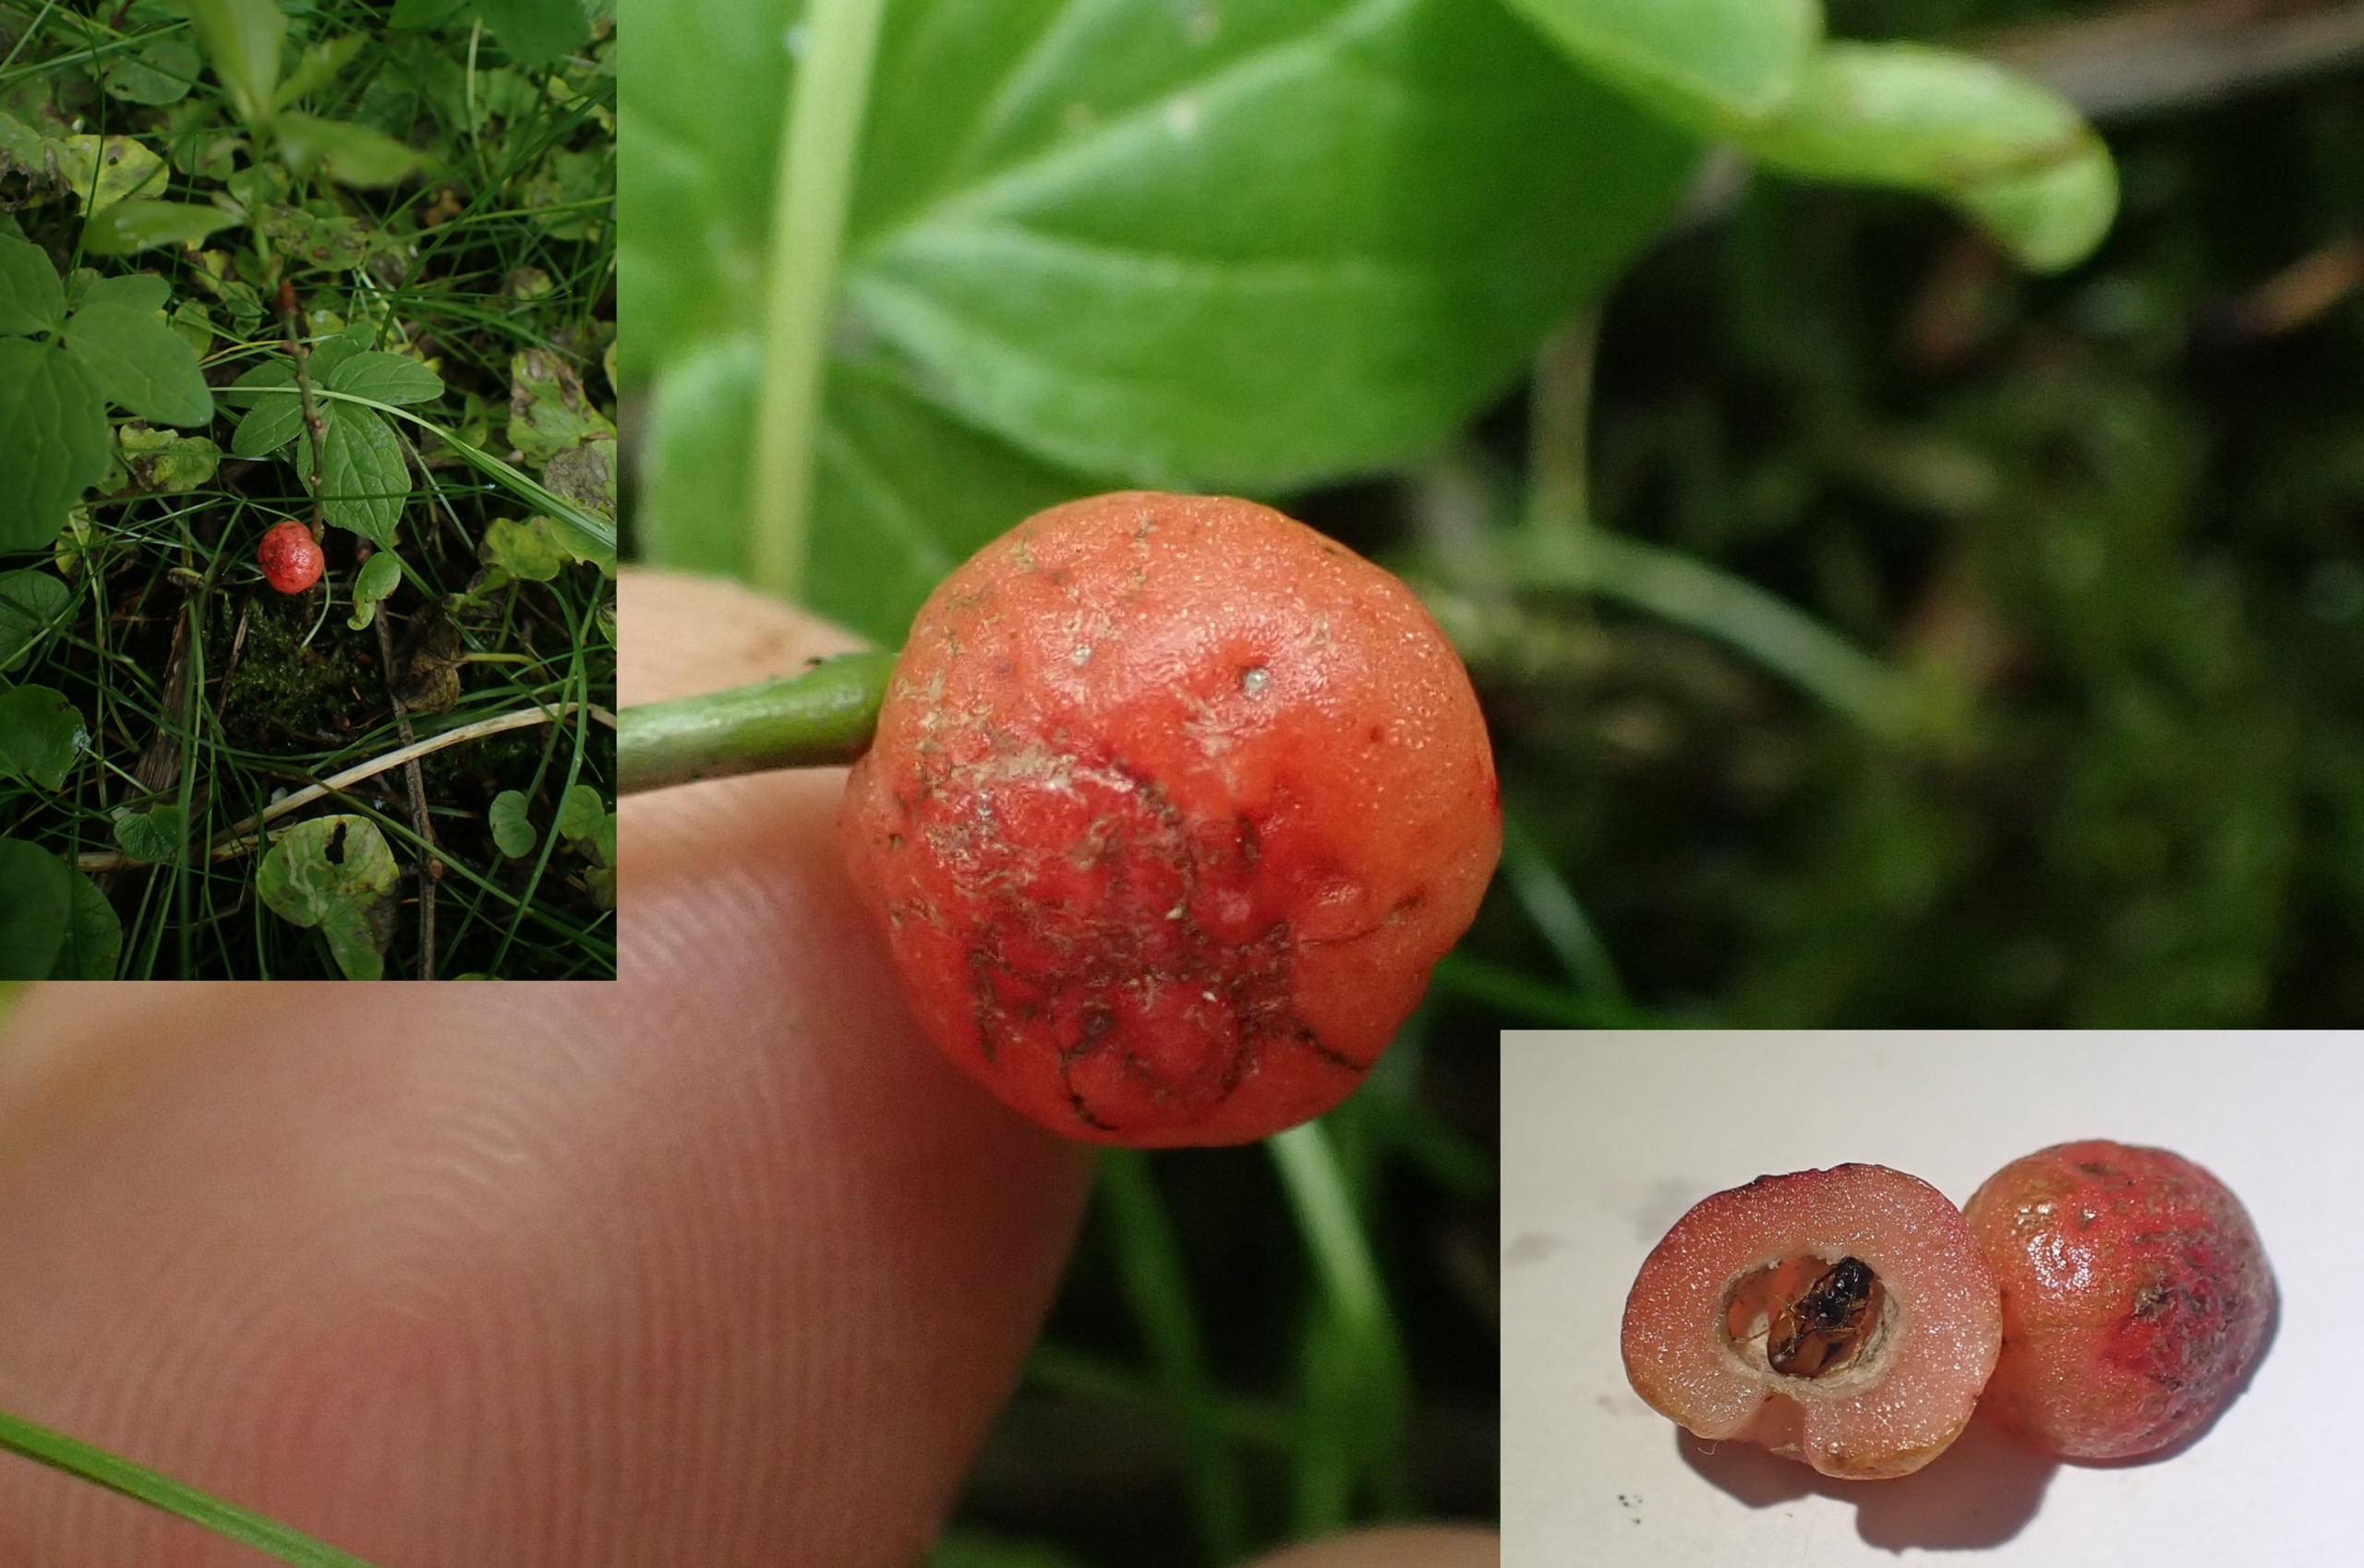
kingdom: Animalia
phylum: Arthropoda
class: Insecta
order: Hymenoptera
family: Cynipidae
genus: Trigonaspis
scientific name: Trigonaspis megaptera
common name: Nyregalhveps
